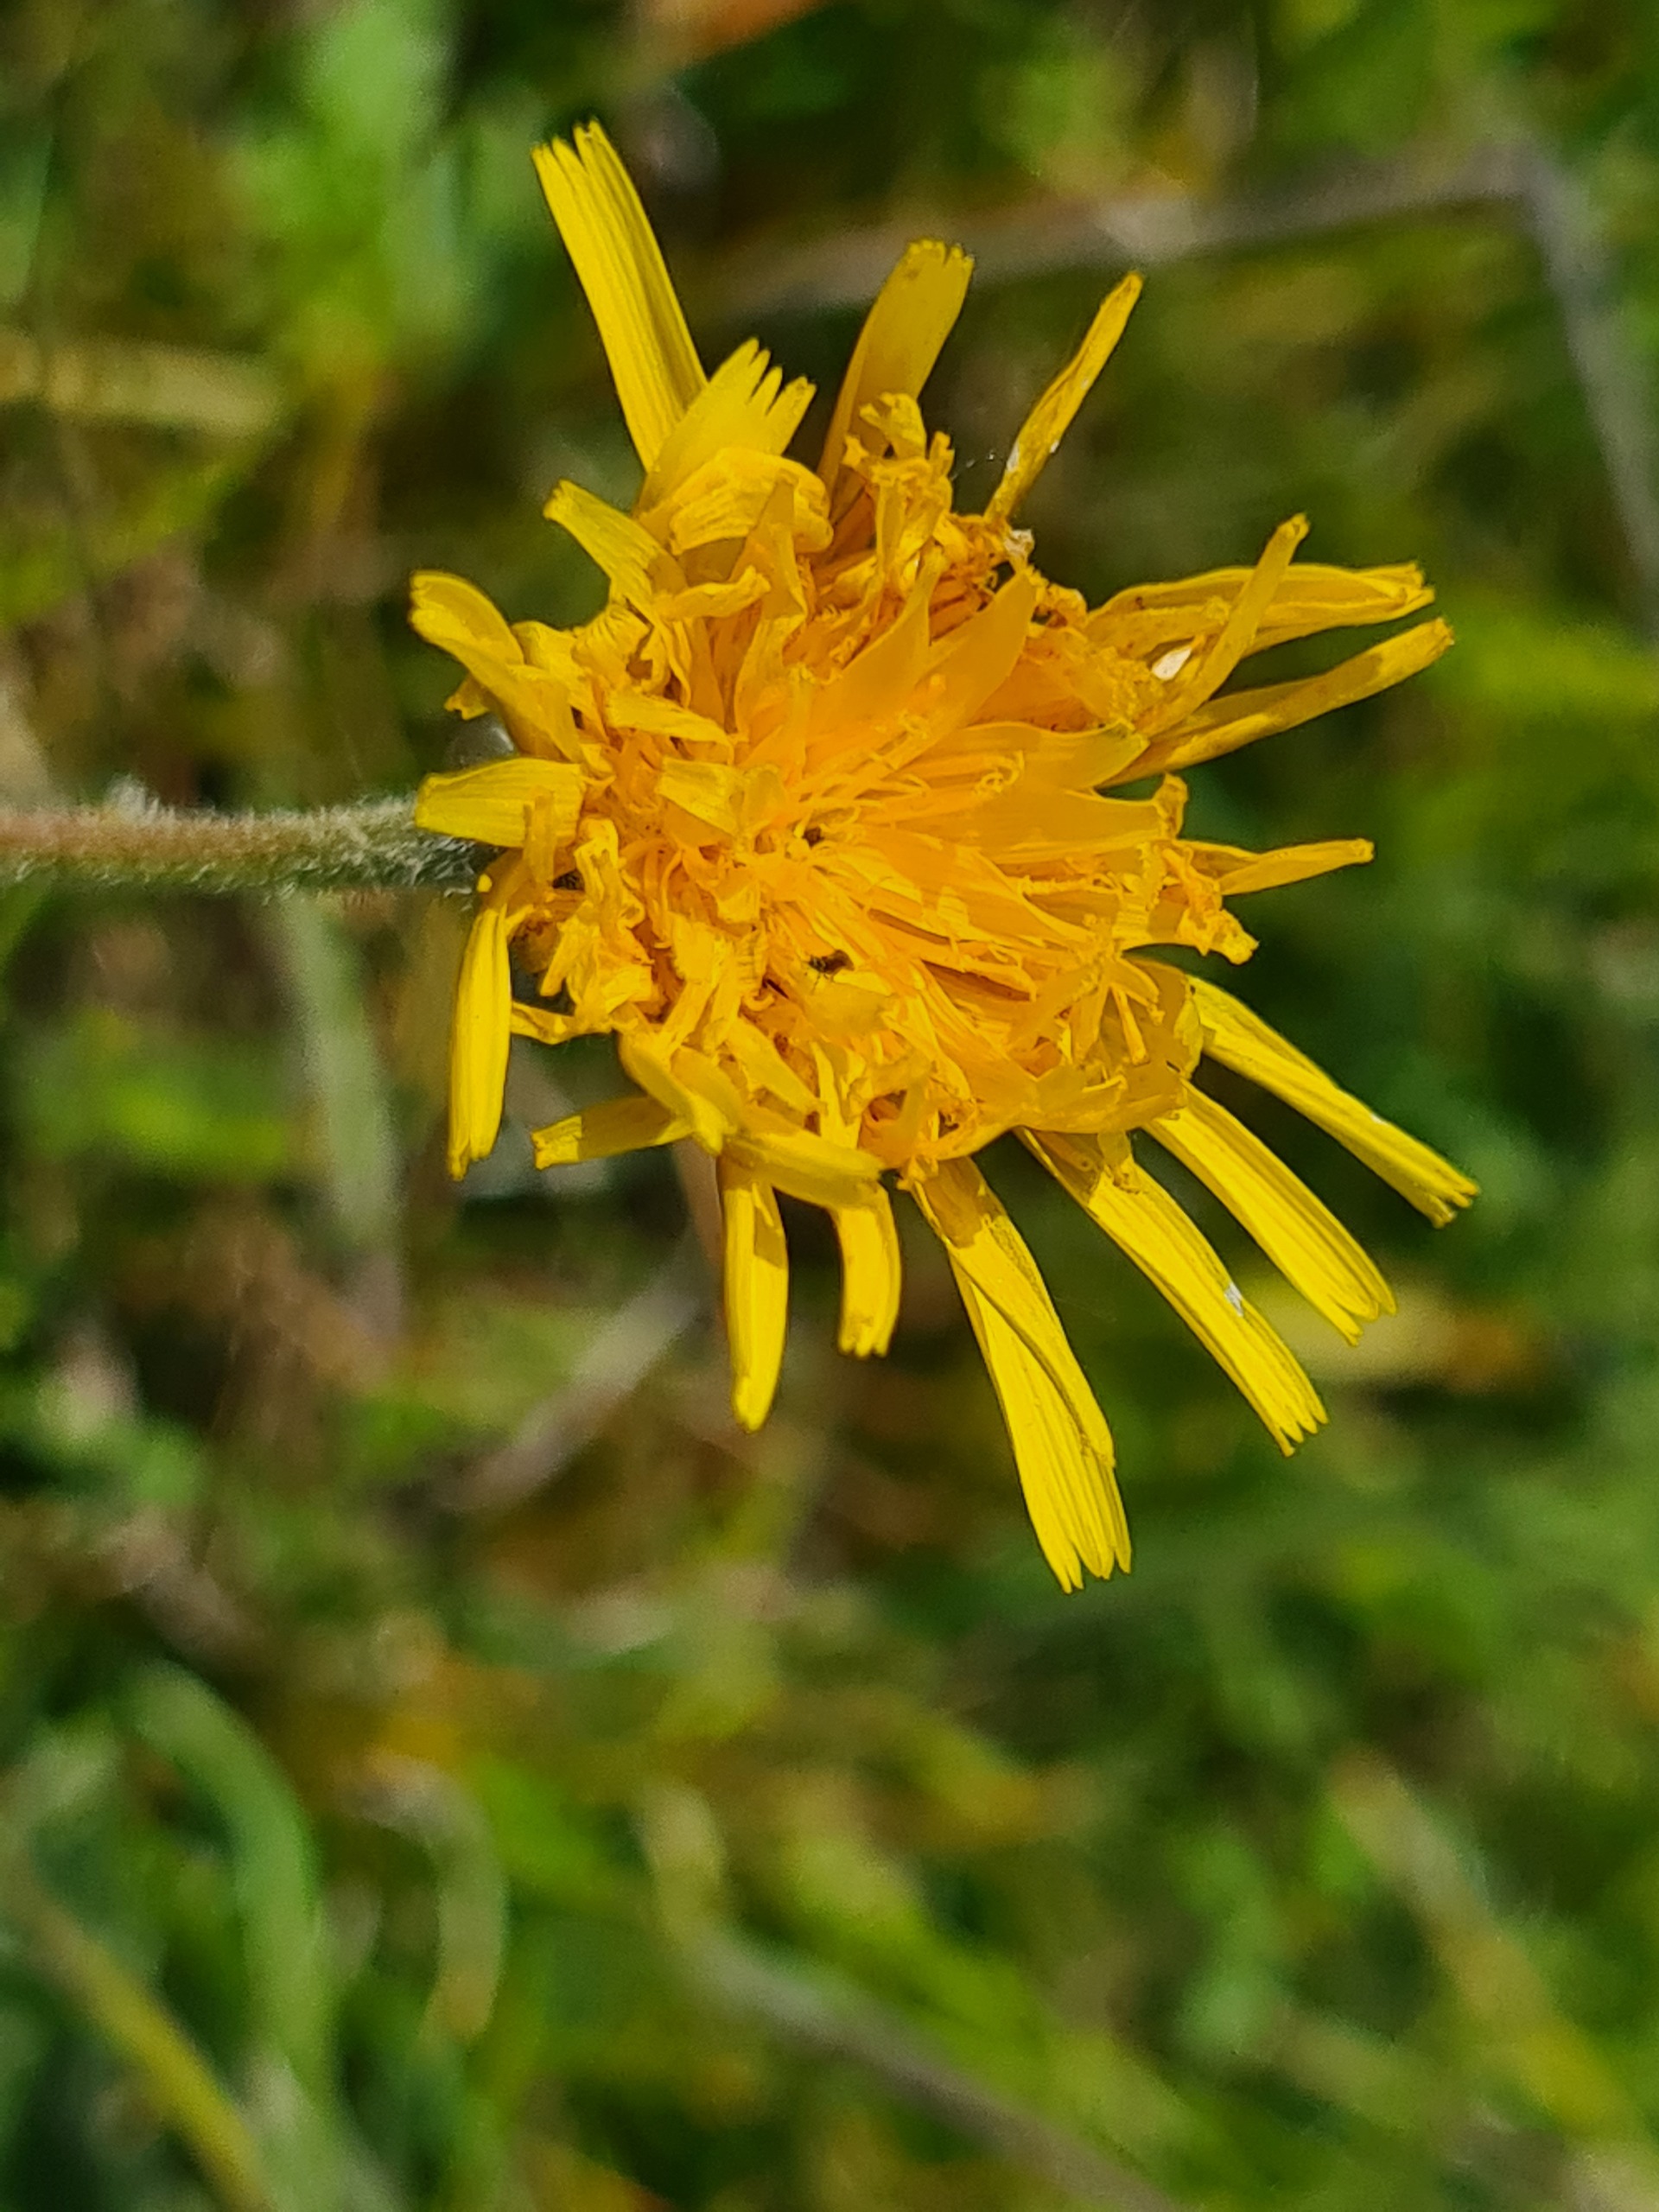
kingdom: Plantae
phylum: Tracheophyta
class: Magnoliopsida
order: Asterales
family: Asteraceae
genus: Leontodon
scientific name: Leontodon hispidus
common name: Stivhåret borst
